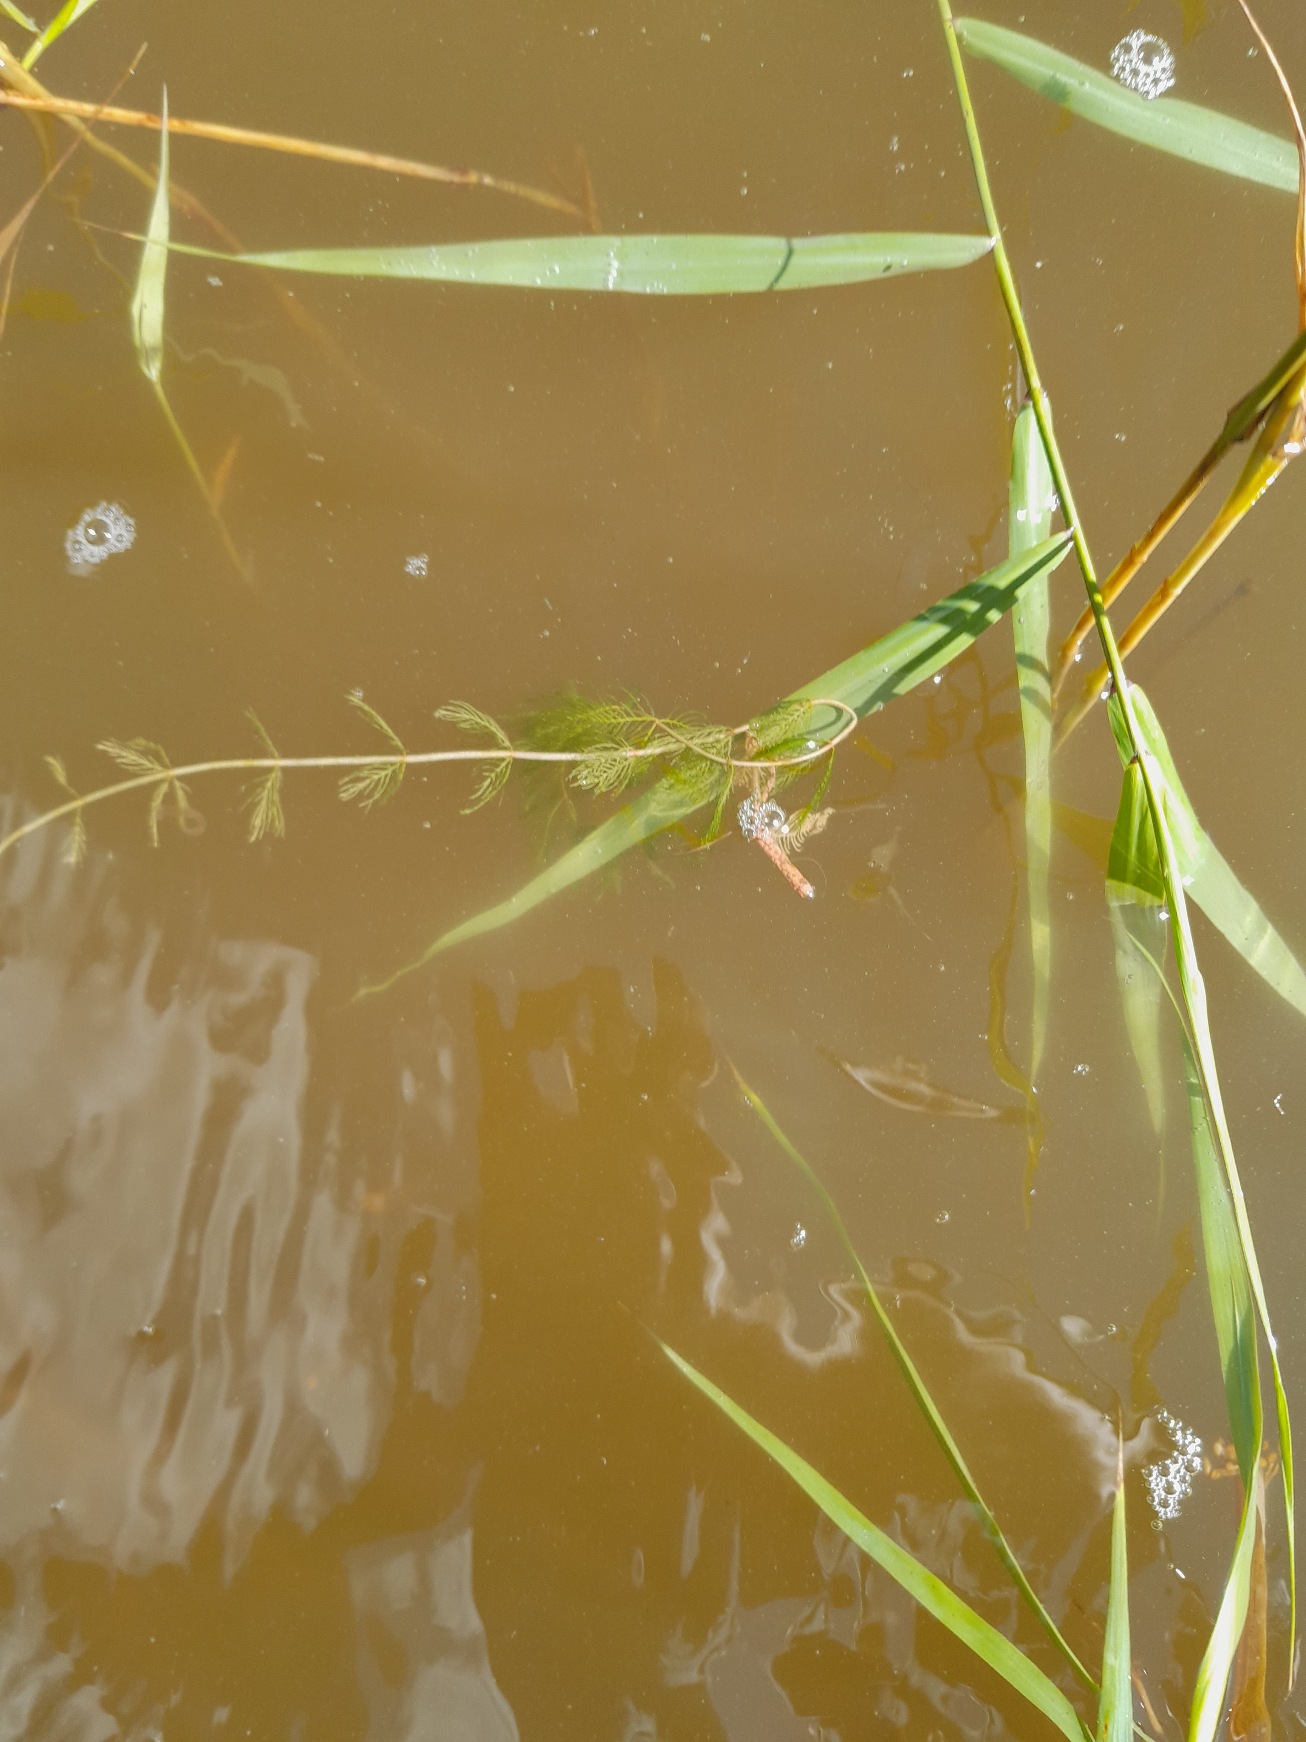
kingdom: Plantae
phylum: Tracheophyta
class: Magnoliopsida
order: Saxifragales
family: Haloragaceae
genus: Myriophyllum
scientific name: Myriophyllum spicatum
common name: Aks-tusindblad
